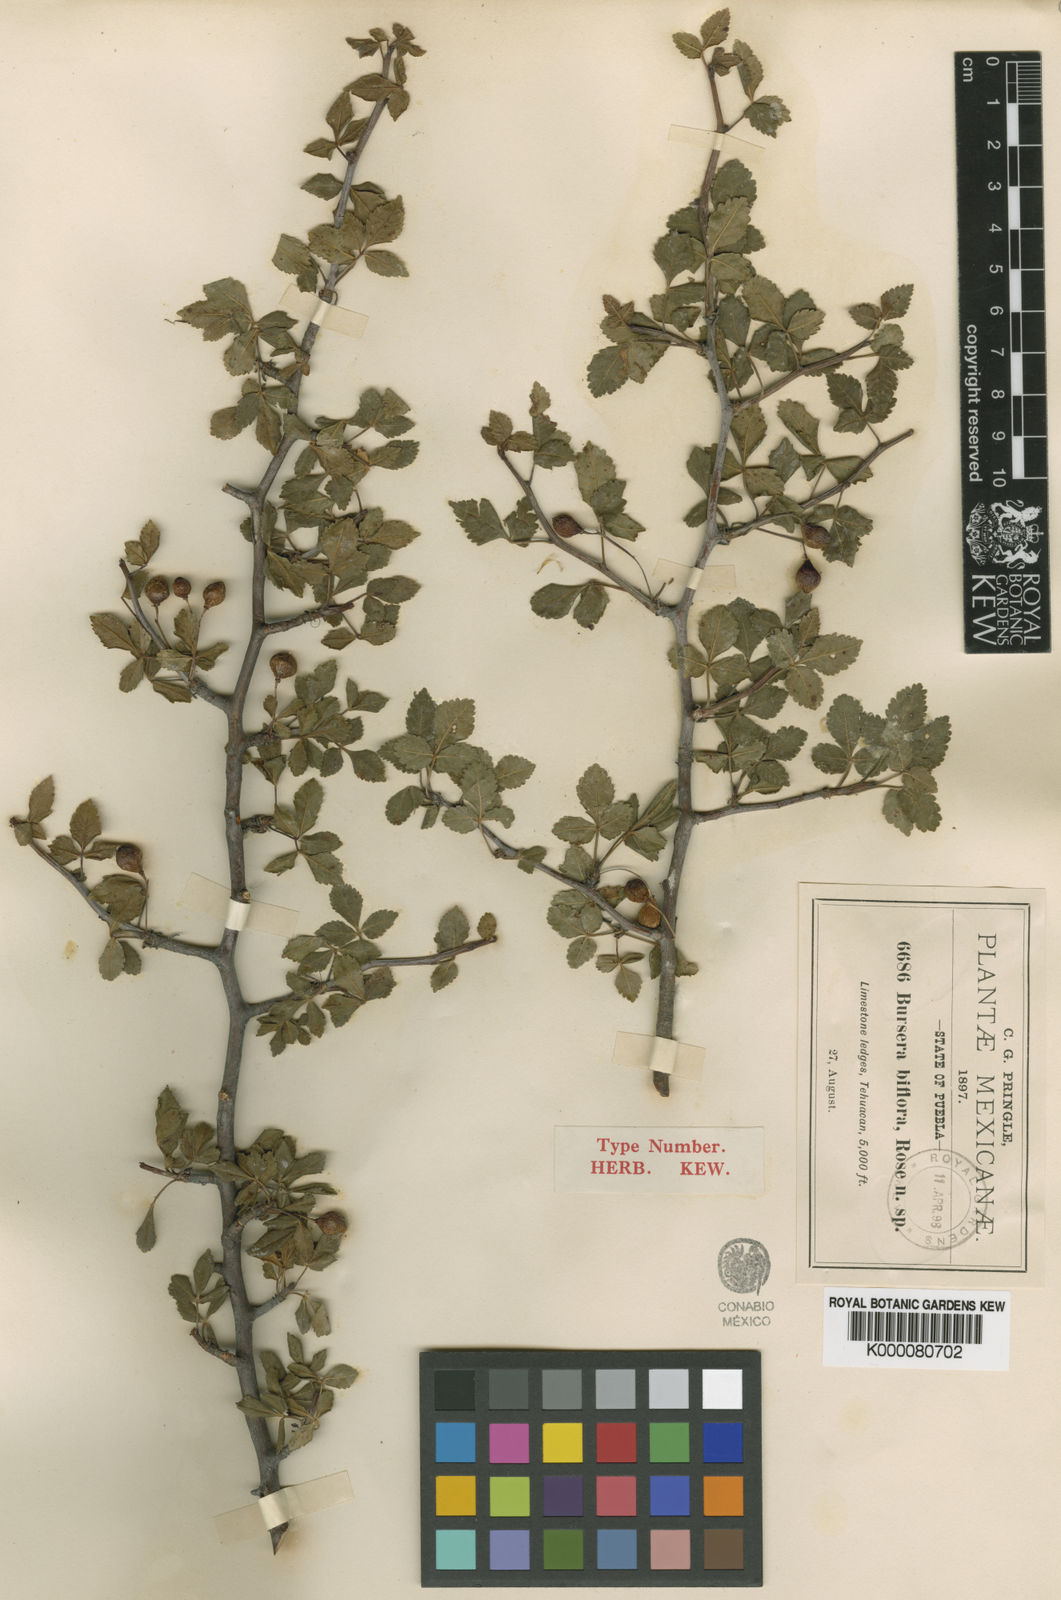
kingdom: Plantae
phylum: Tracheophyta
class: Magnoliopsida
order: Sapindales
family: Burseraceae
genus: Bursera
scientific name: Bursera biflora
